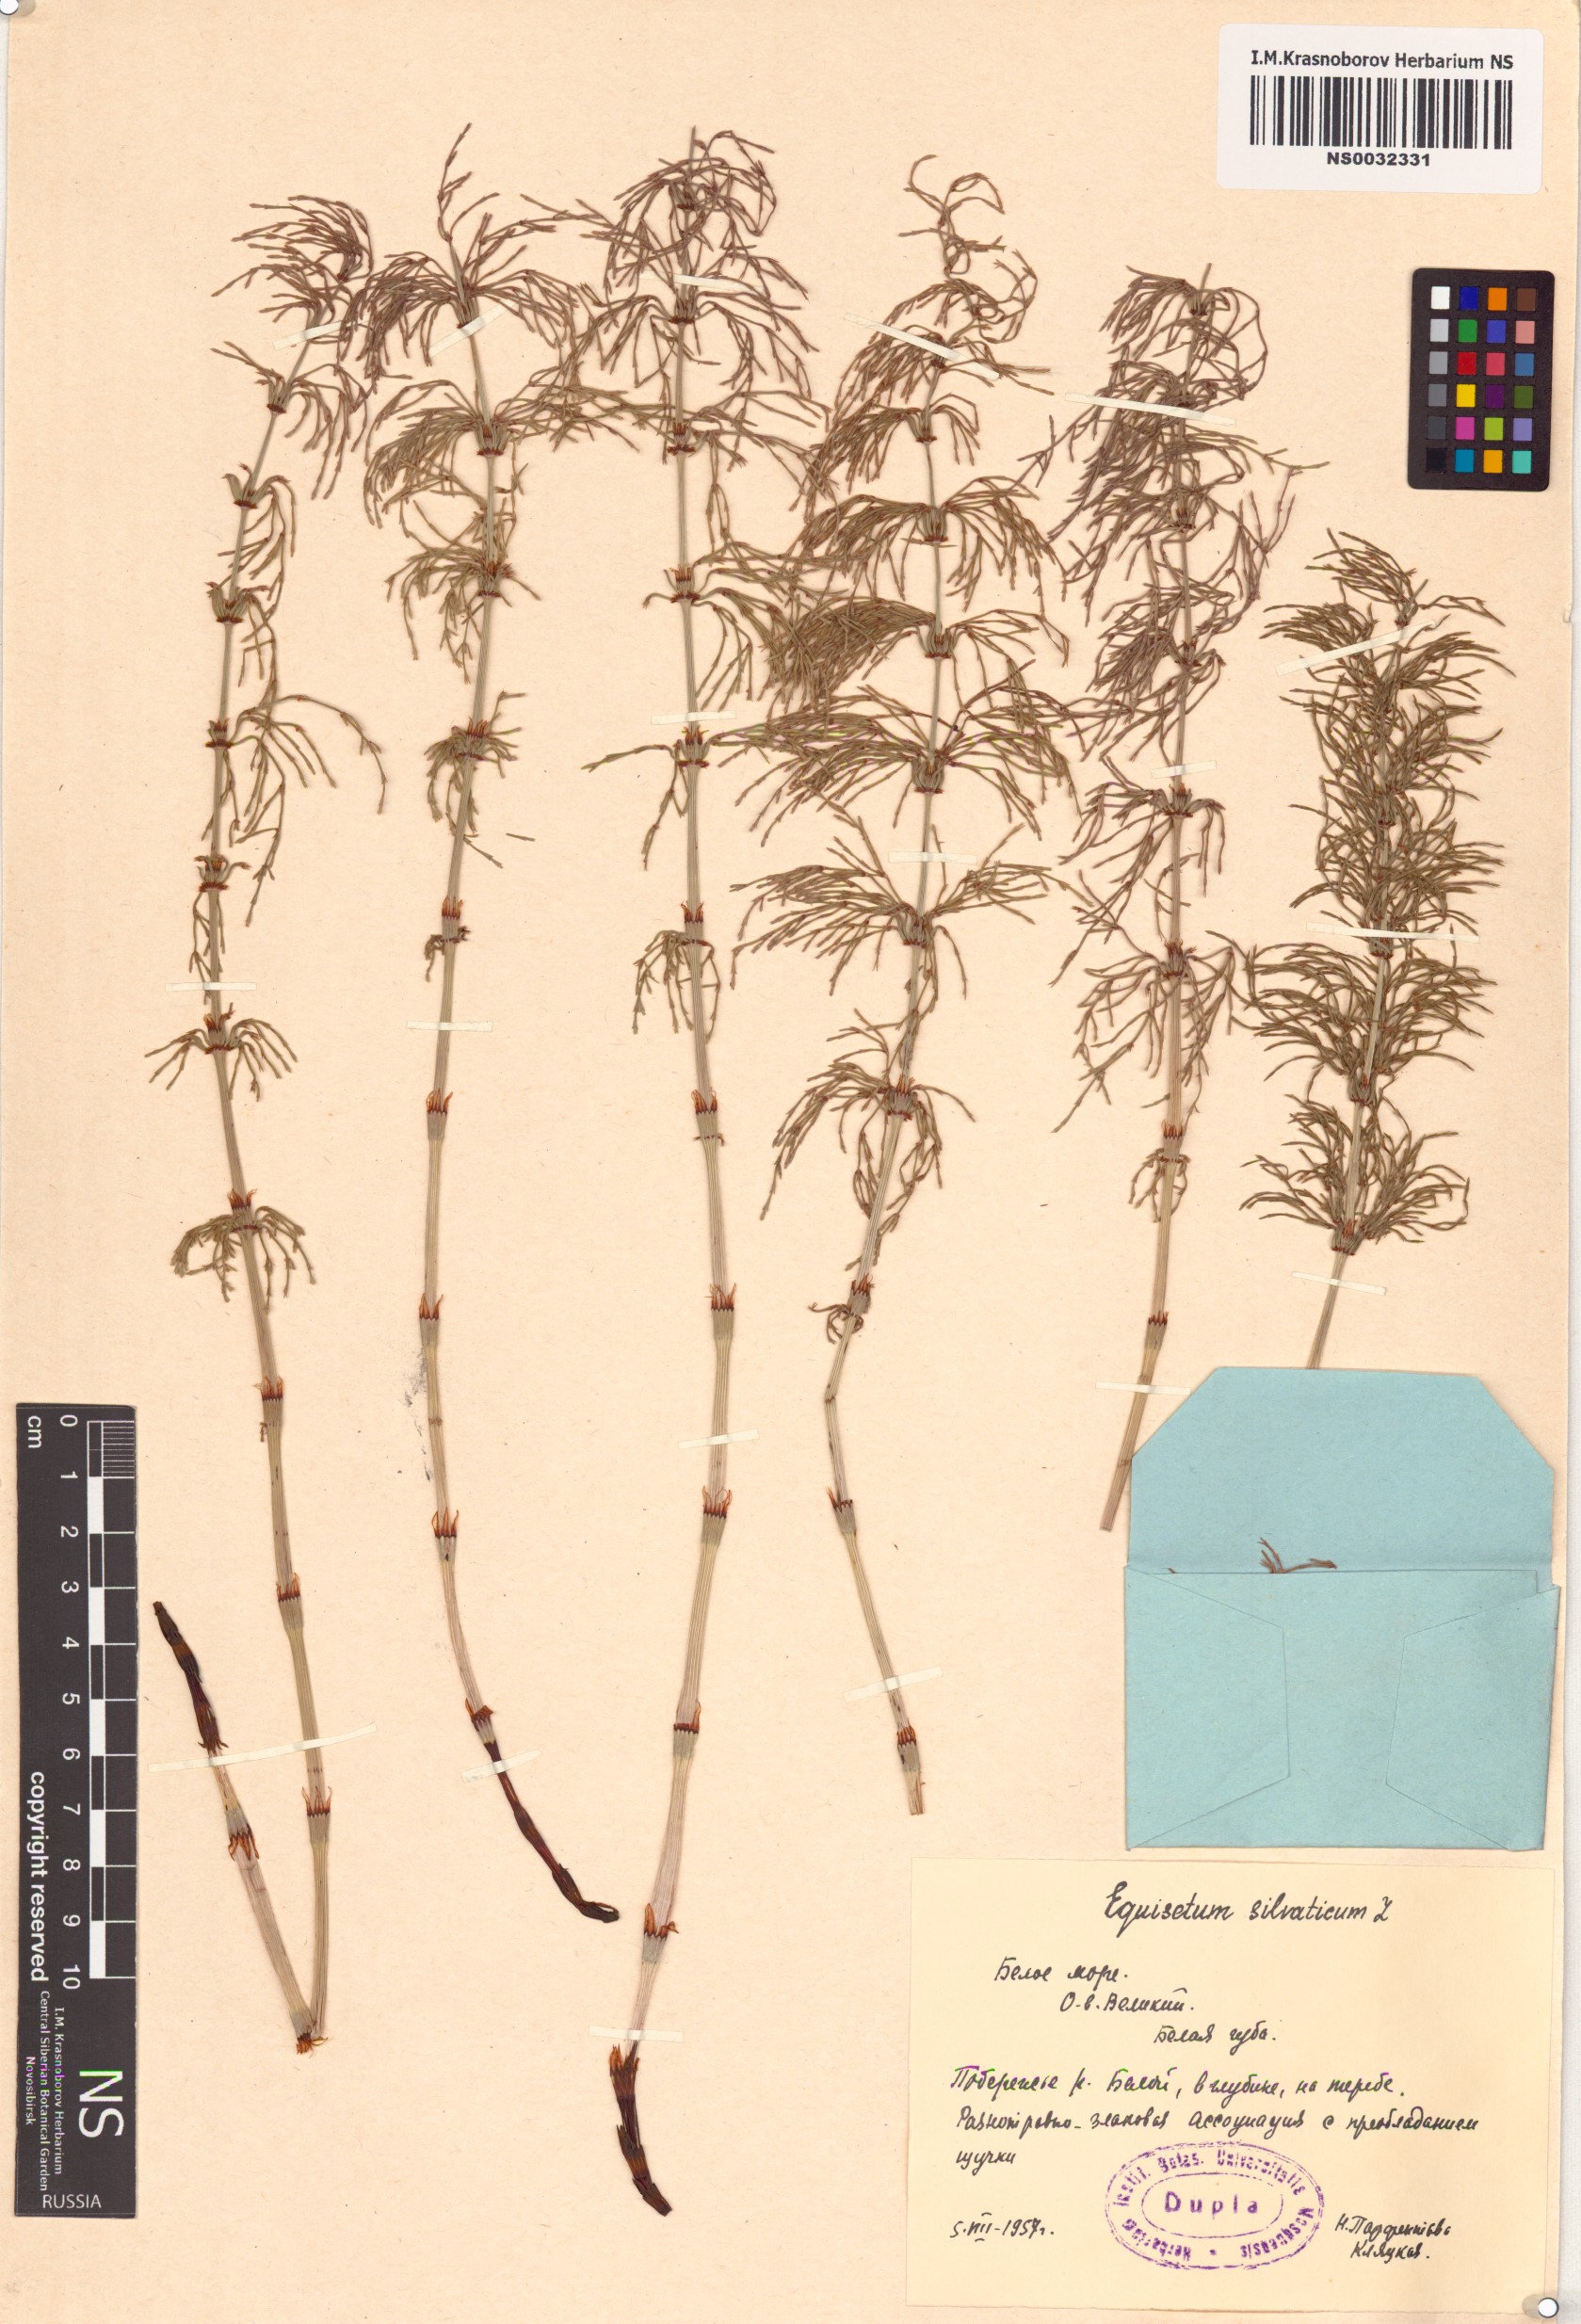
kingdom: Plantae
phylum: Tracheophyta
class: Polypodiopsida
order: Equisetales
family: Equisetaceae
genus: Equisetum
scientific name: Equisetum sylvaticum
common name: Wood horsetail
